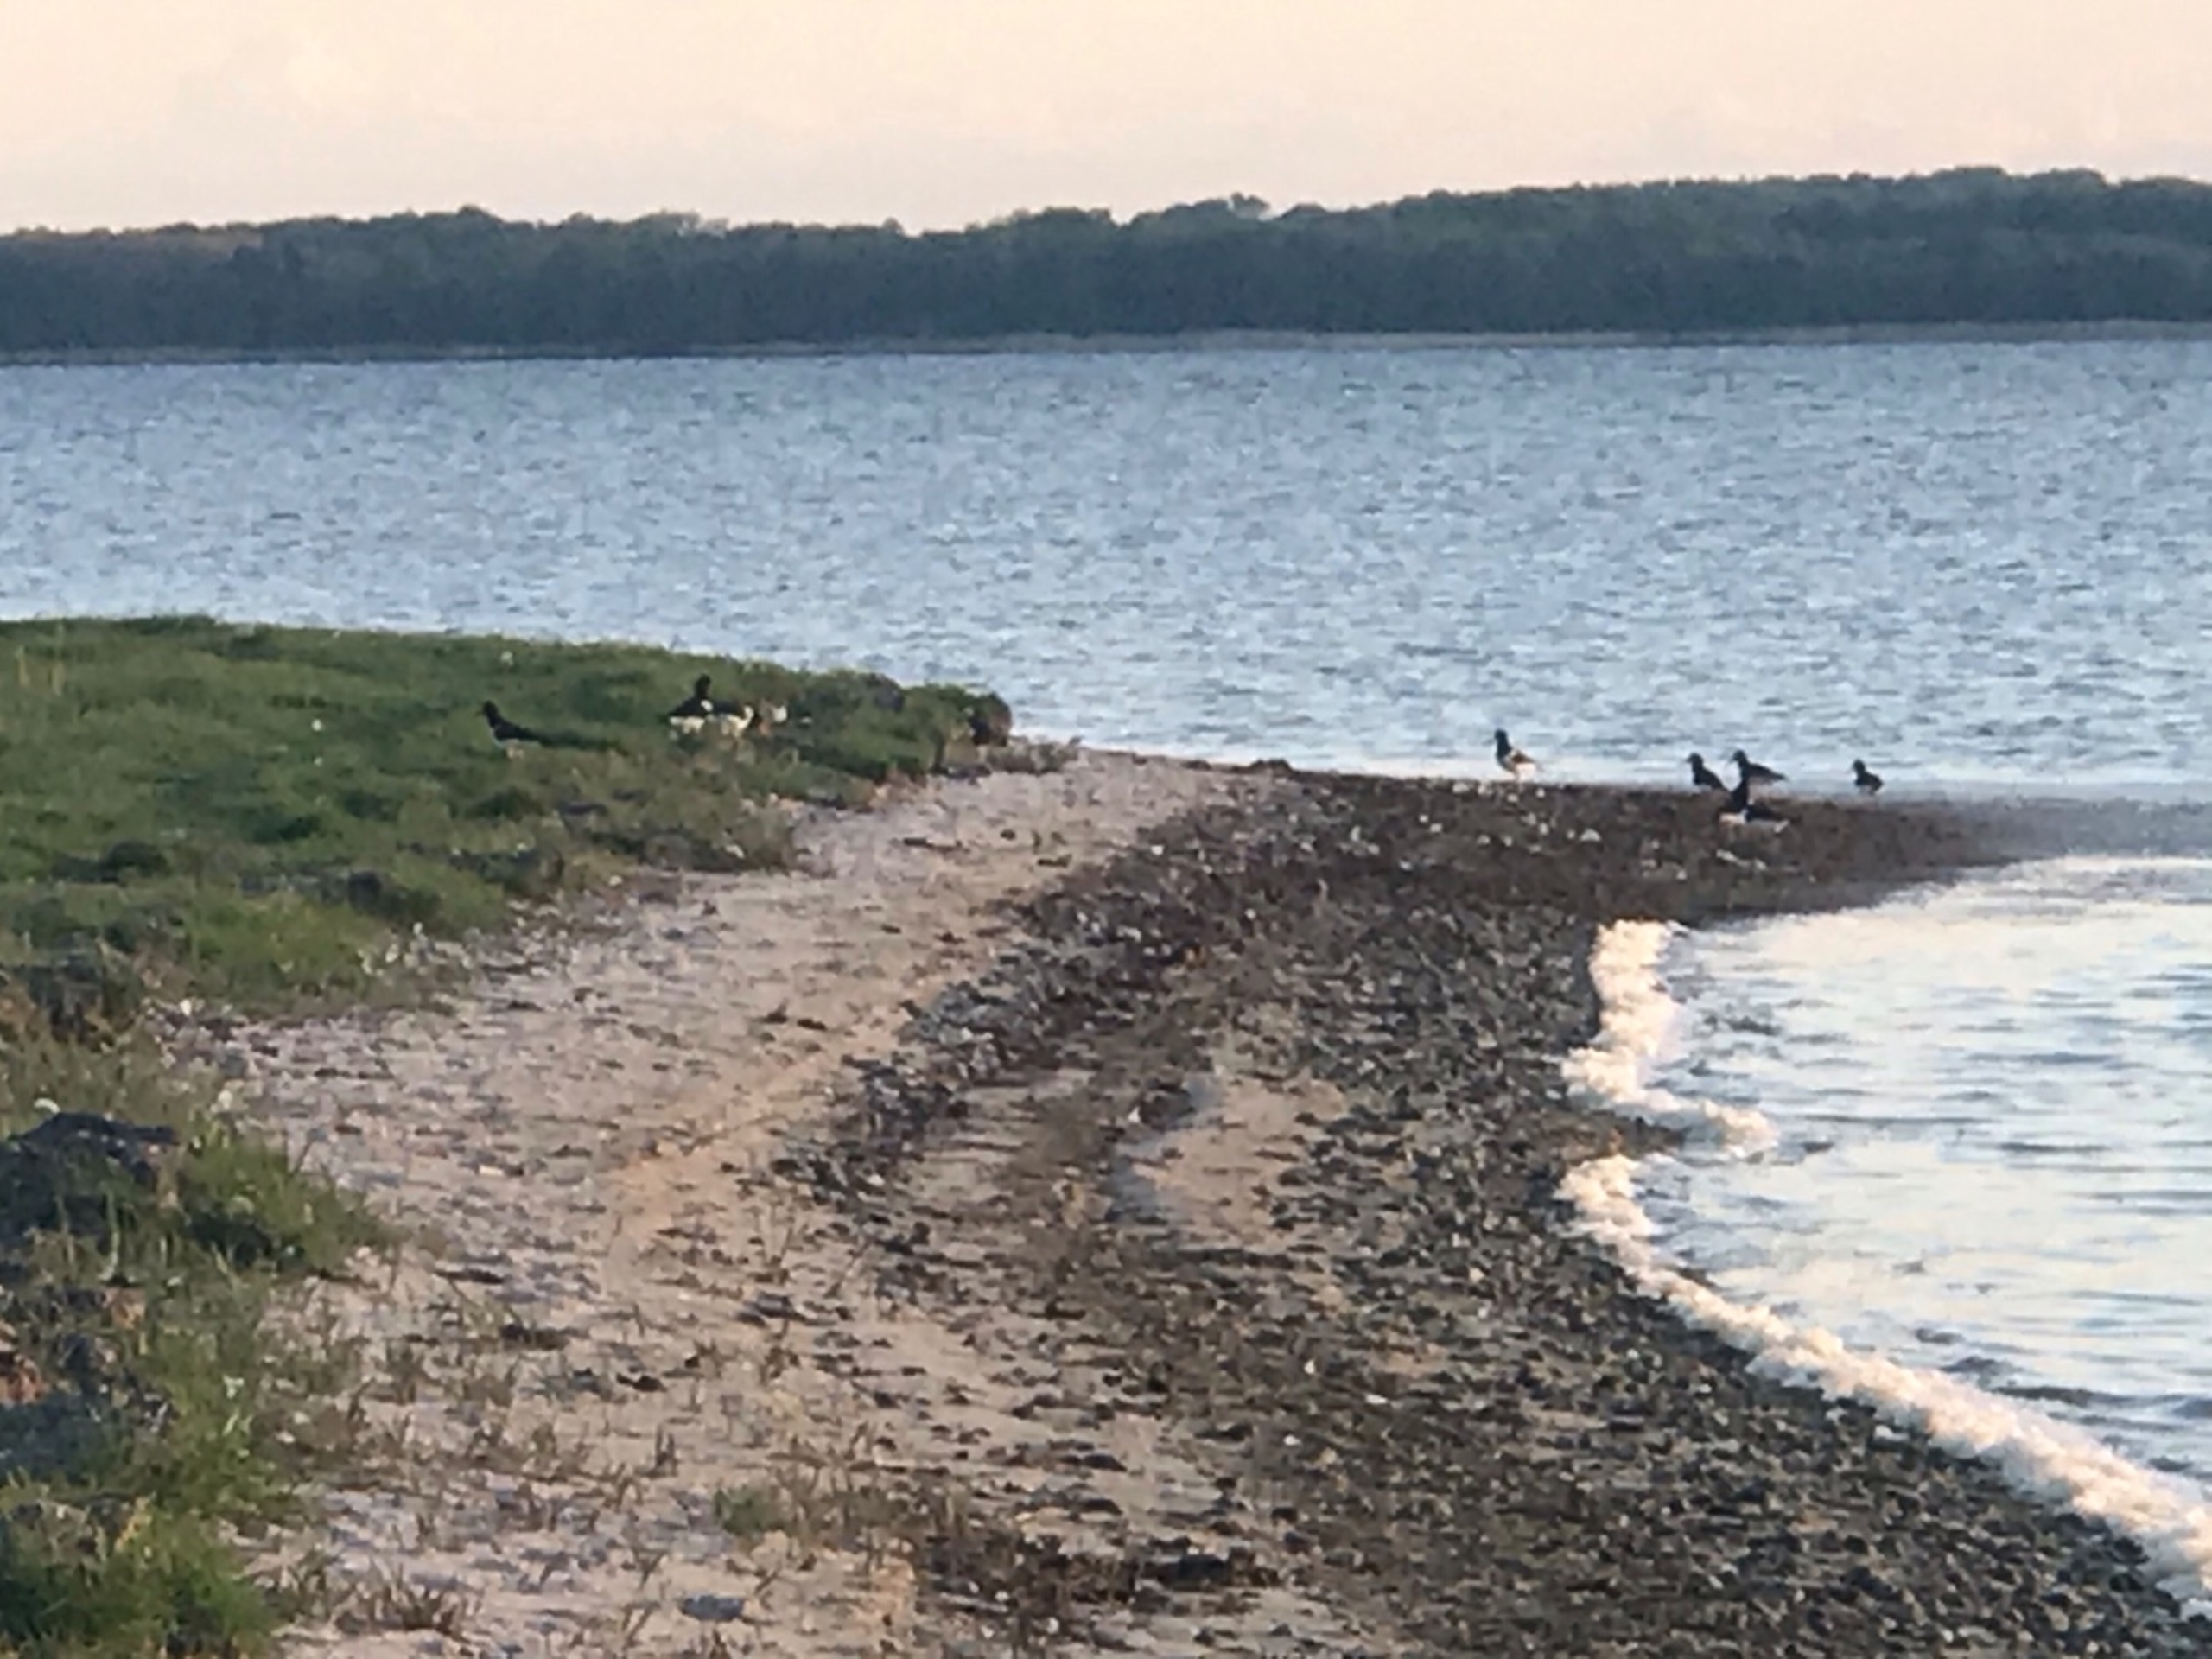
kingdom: Animalia
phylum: Chordata
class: Aves
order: Charadriiformes
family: Haematopodidae
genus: Haematopus
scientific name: Haematopus ostralegus
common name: Strandskade
